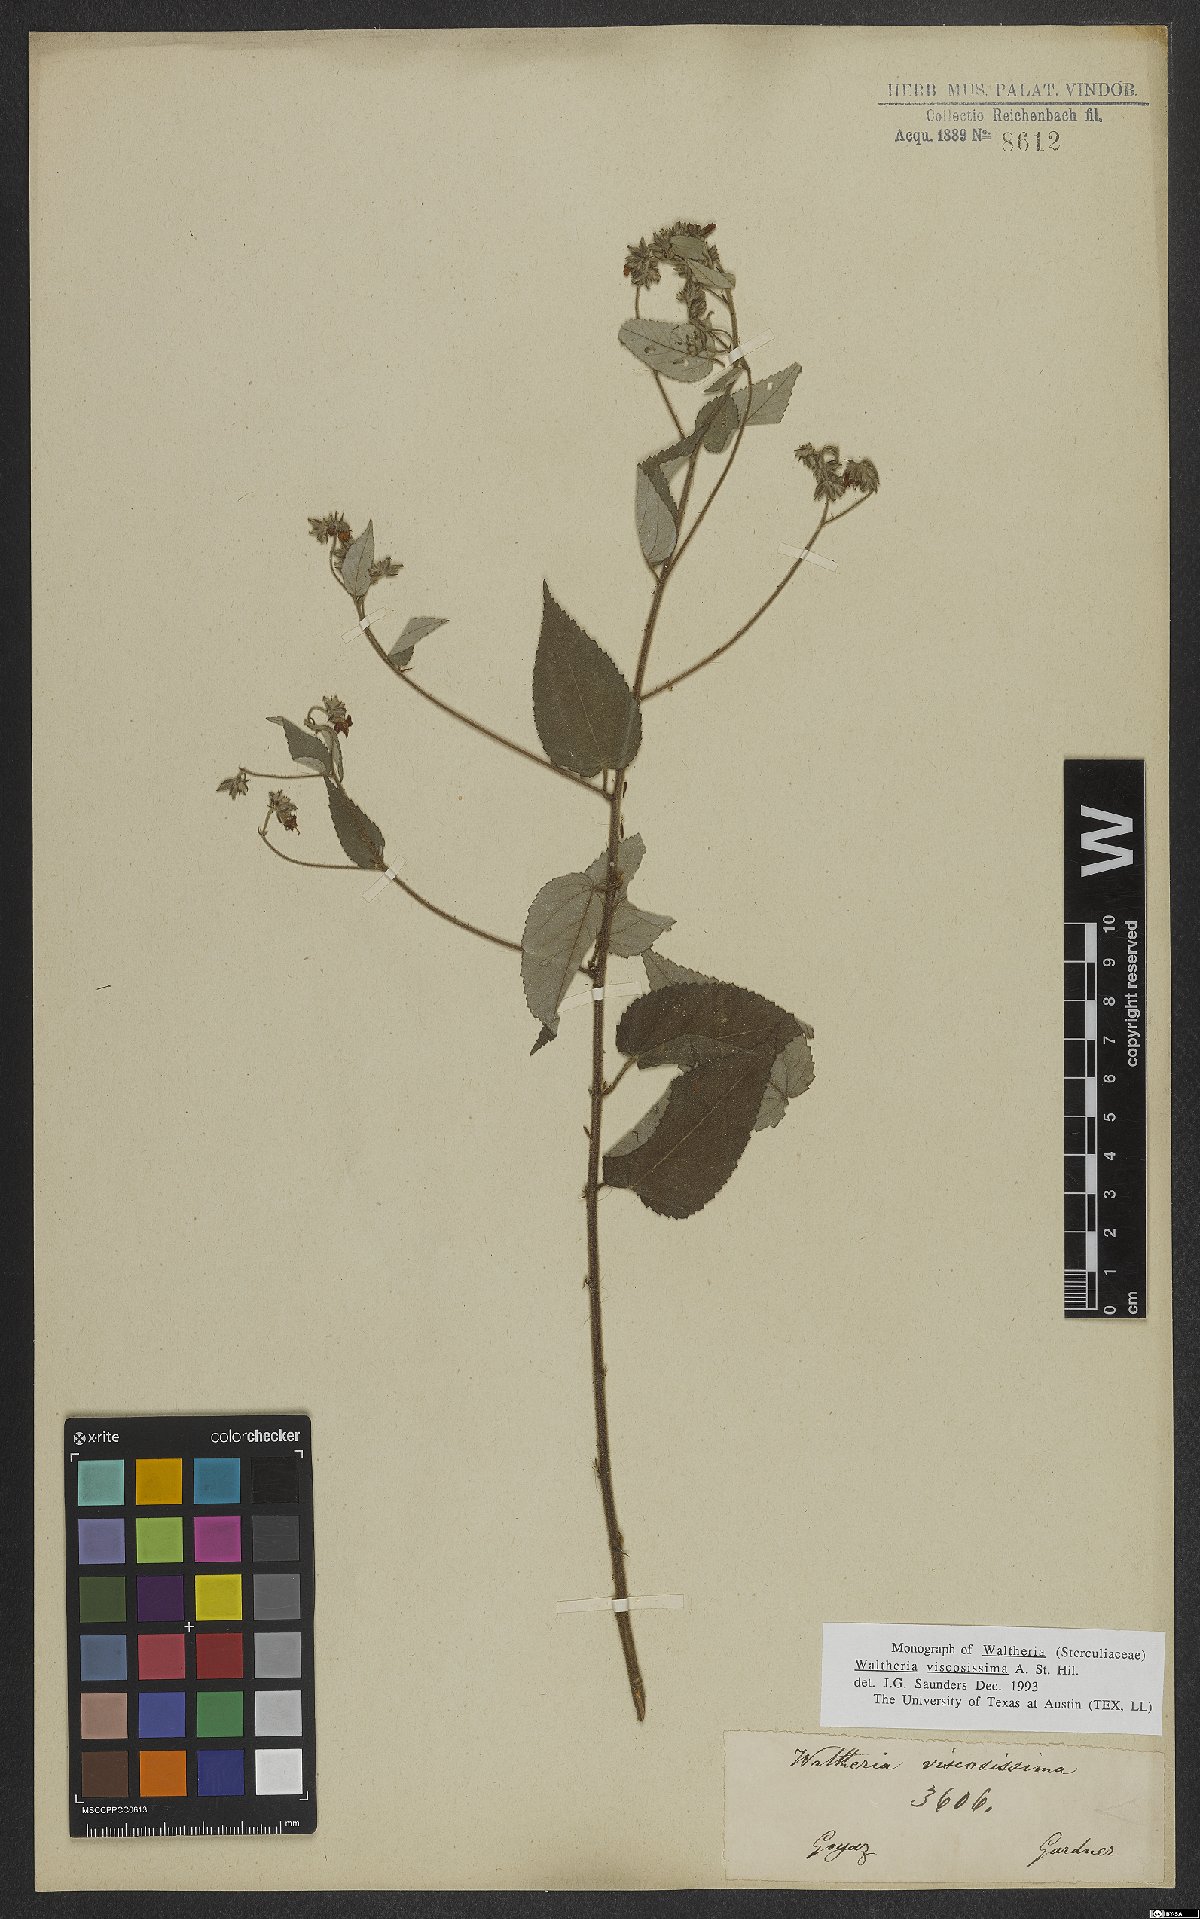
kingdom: Plantae
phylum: Tracheophyta
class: Magnoliopsida
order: Malvales
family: Malvaceae
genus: Waltheria
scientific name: Waltheria viscosissima
